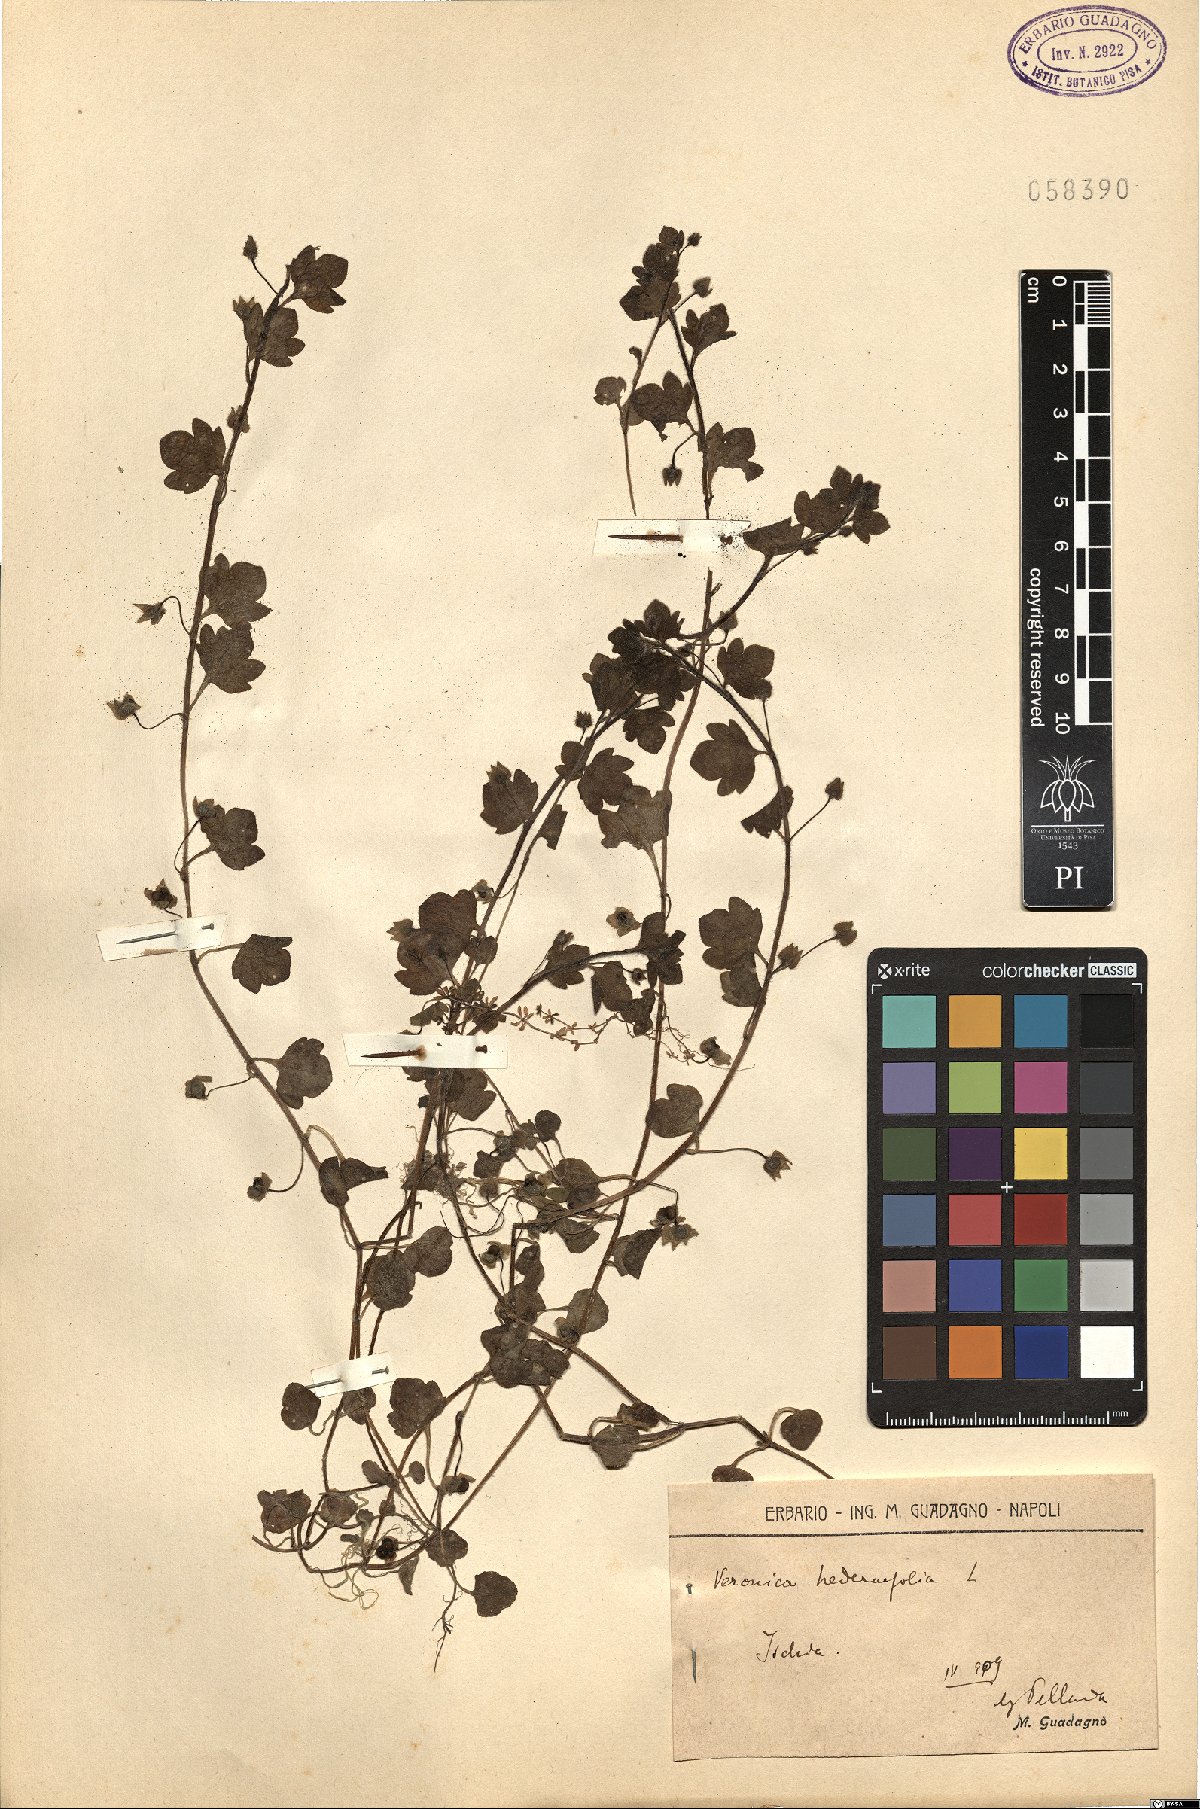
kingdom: Plantae
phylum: Tracheophyta
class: Magnoliopsida
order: Lamiales
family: Plantaginaceae
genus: Veronica
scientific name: Veronica hederifolia
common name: Ivy-leaved speedwell
